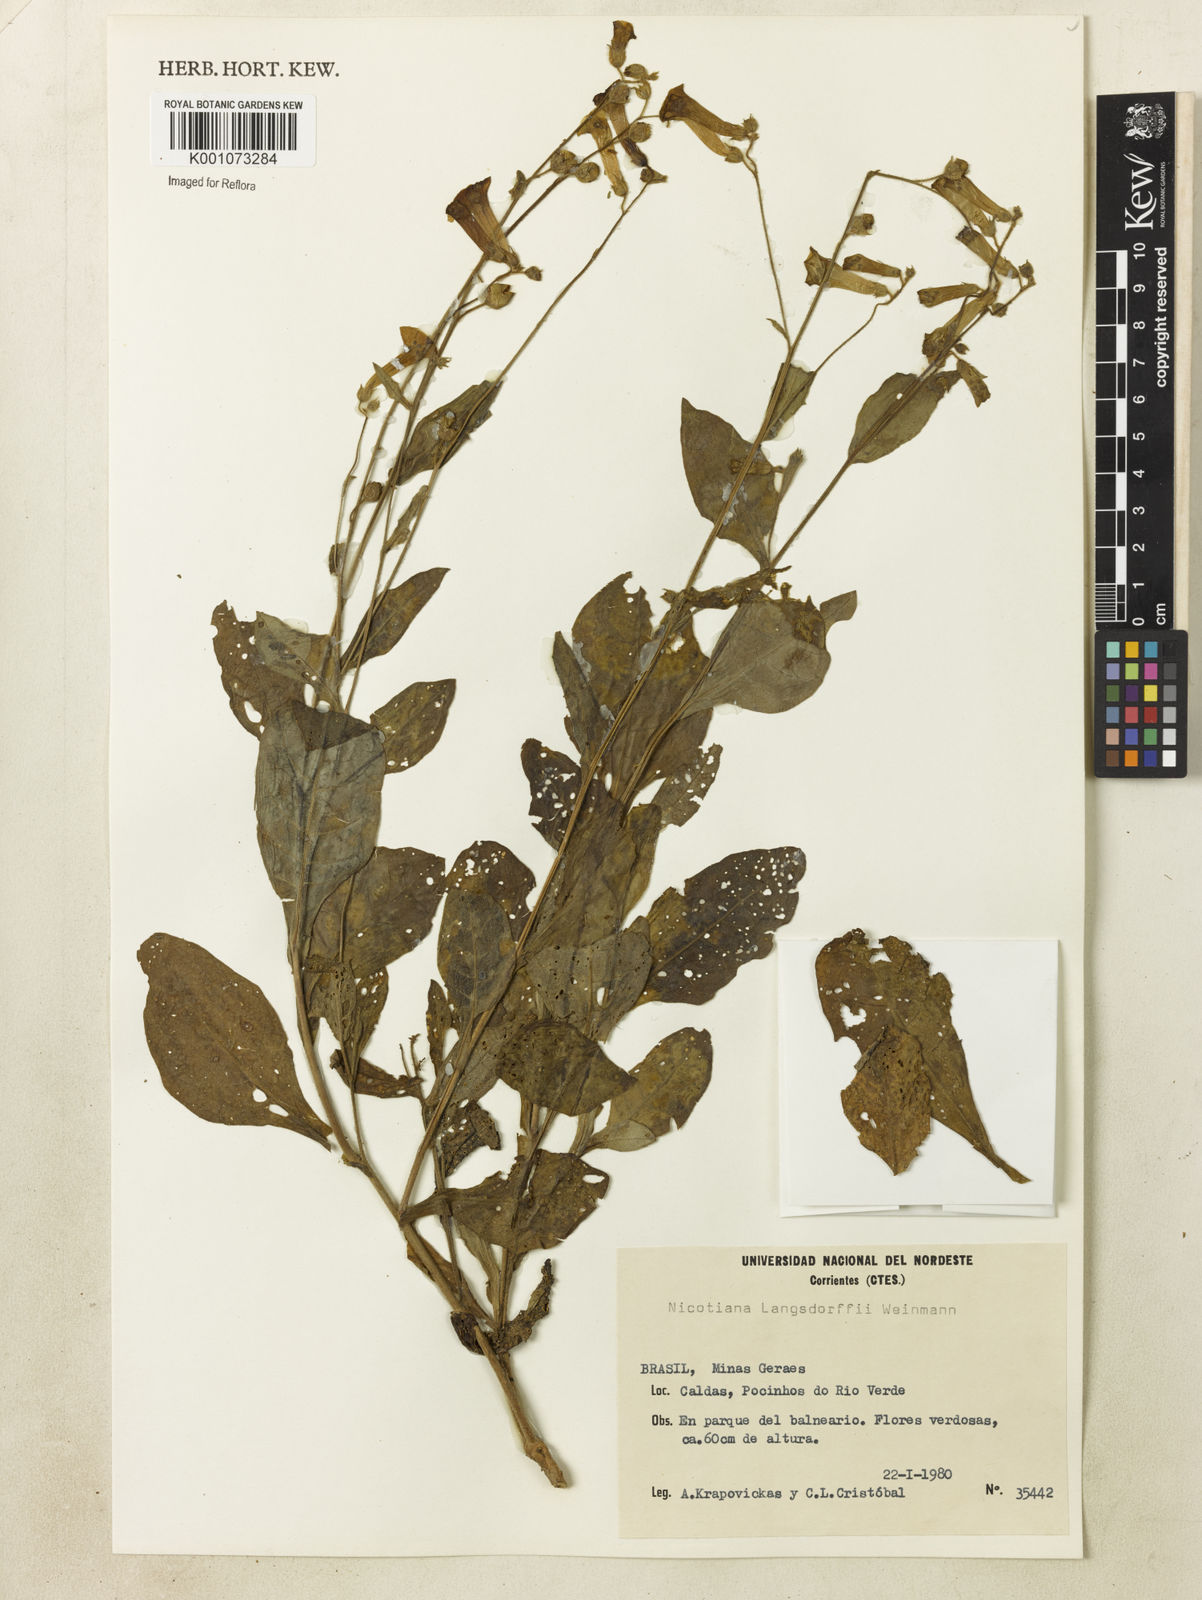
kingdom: Plantae
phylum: Tracheophyta
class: Magnoliopsida
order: Solanales
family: Solanaceae
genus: Nicotiana
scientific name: Nicotiana
